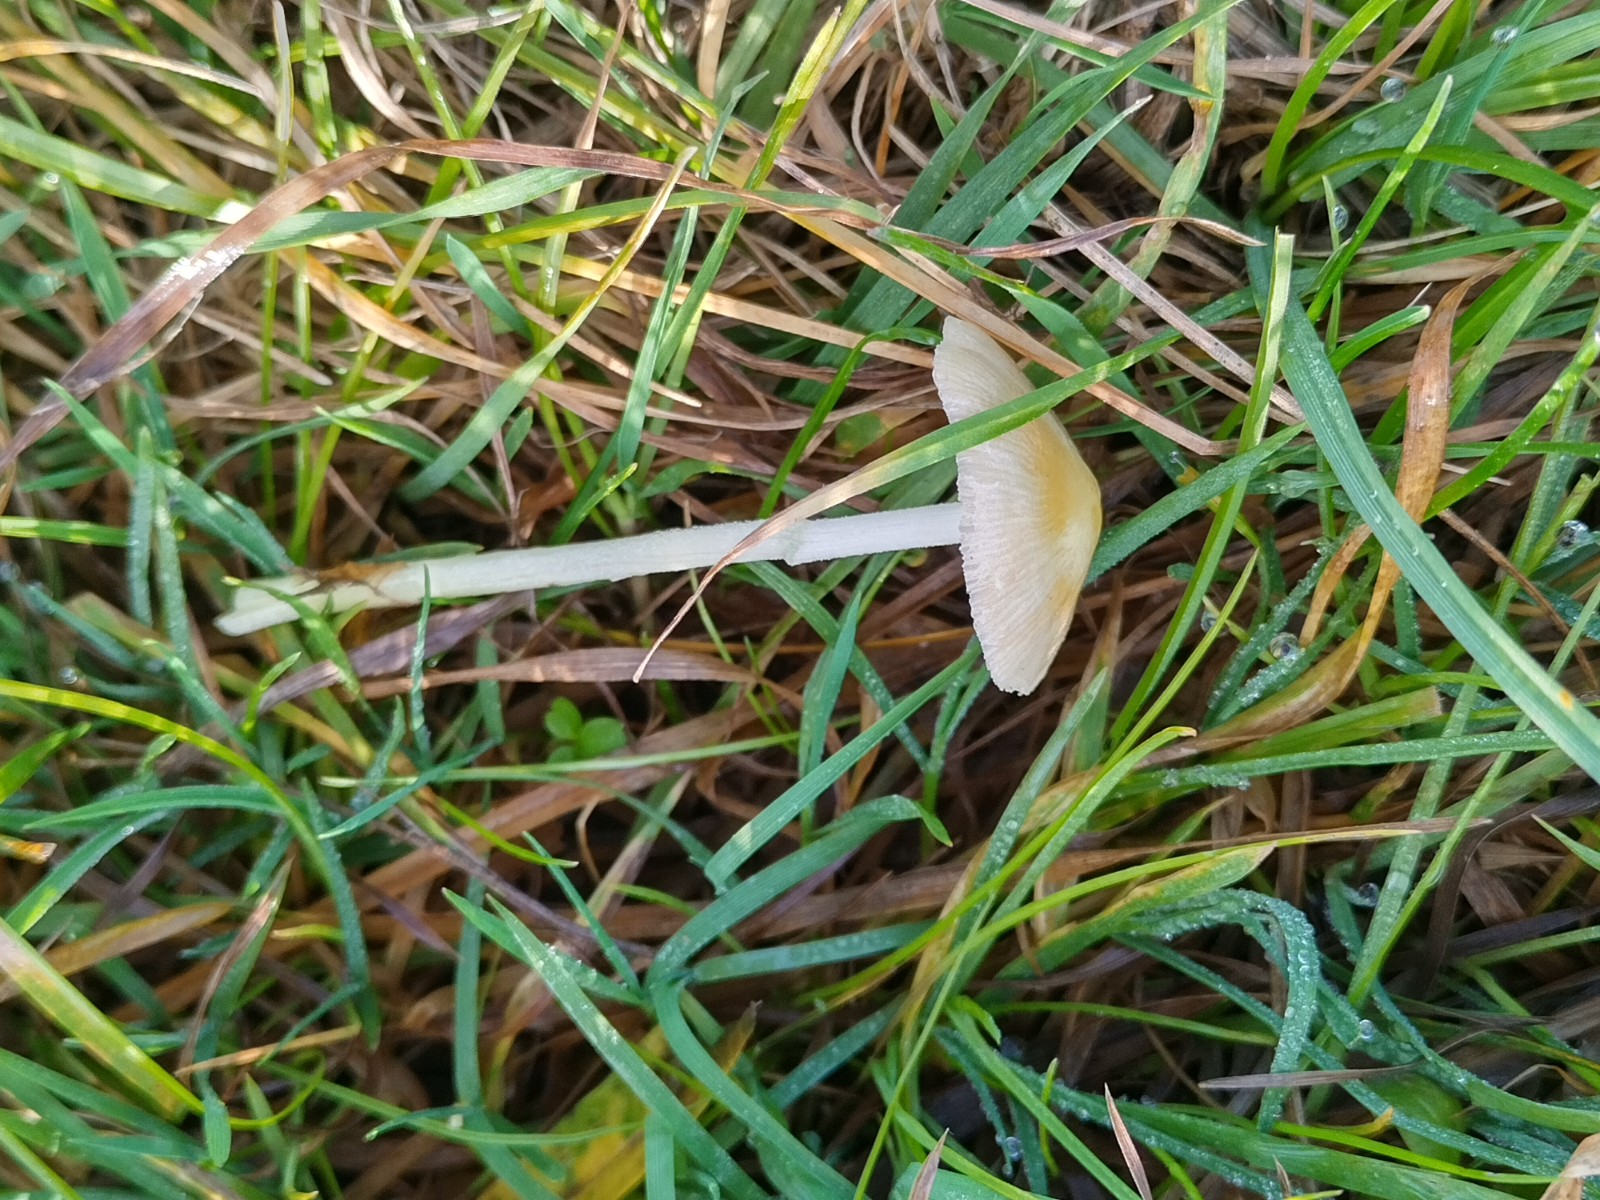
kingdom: Fungi
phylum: Basidiomycota
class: Agaricomycetes
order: Agaricales
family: Bolbitiaceae
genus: Bolbitius
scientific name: Bolbitius titubans
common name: almindelig gulhat
